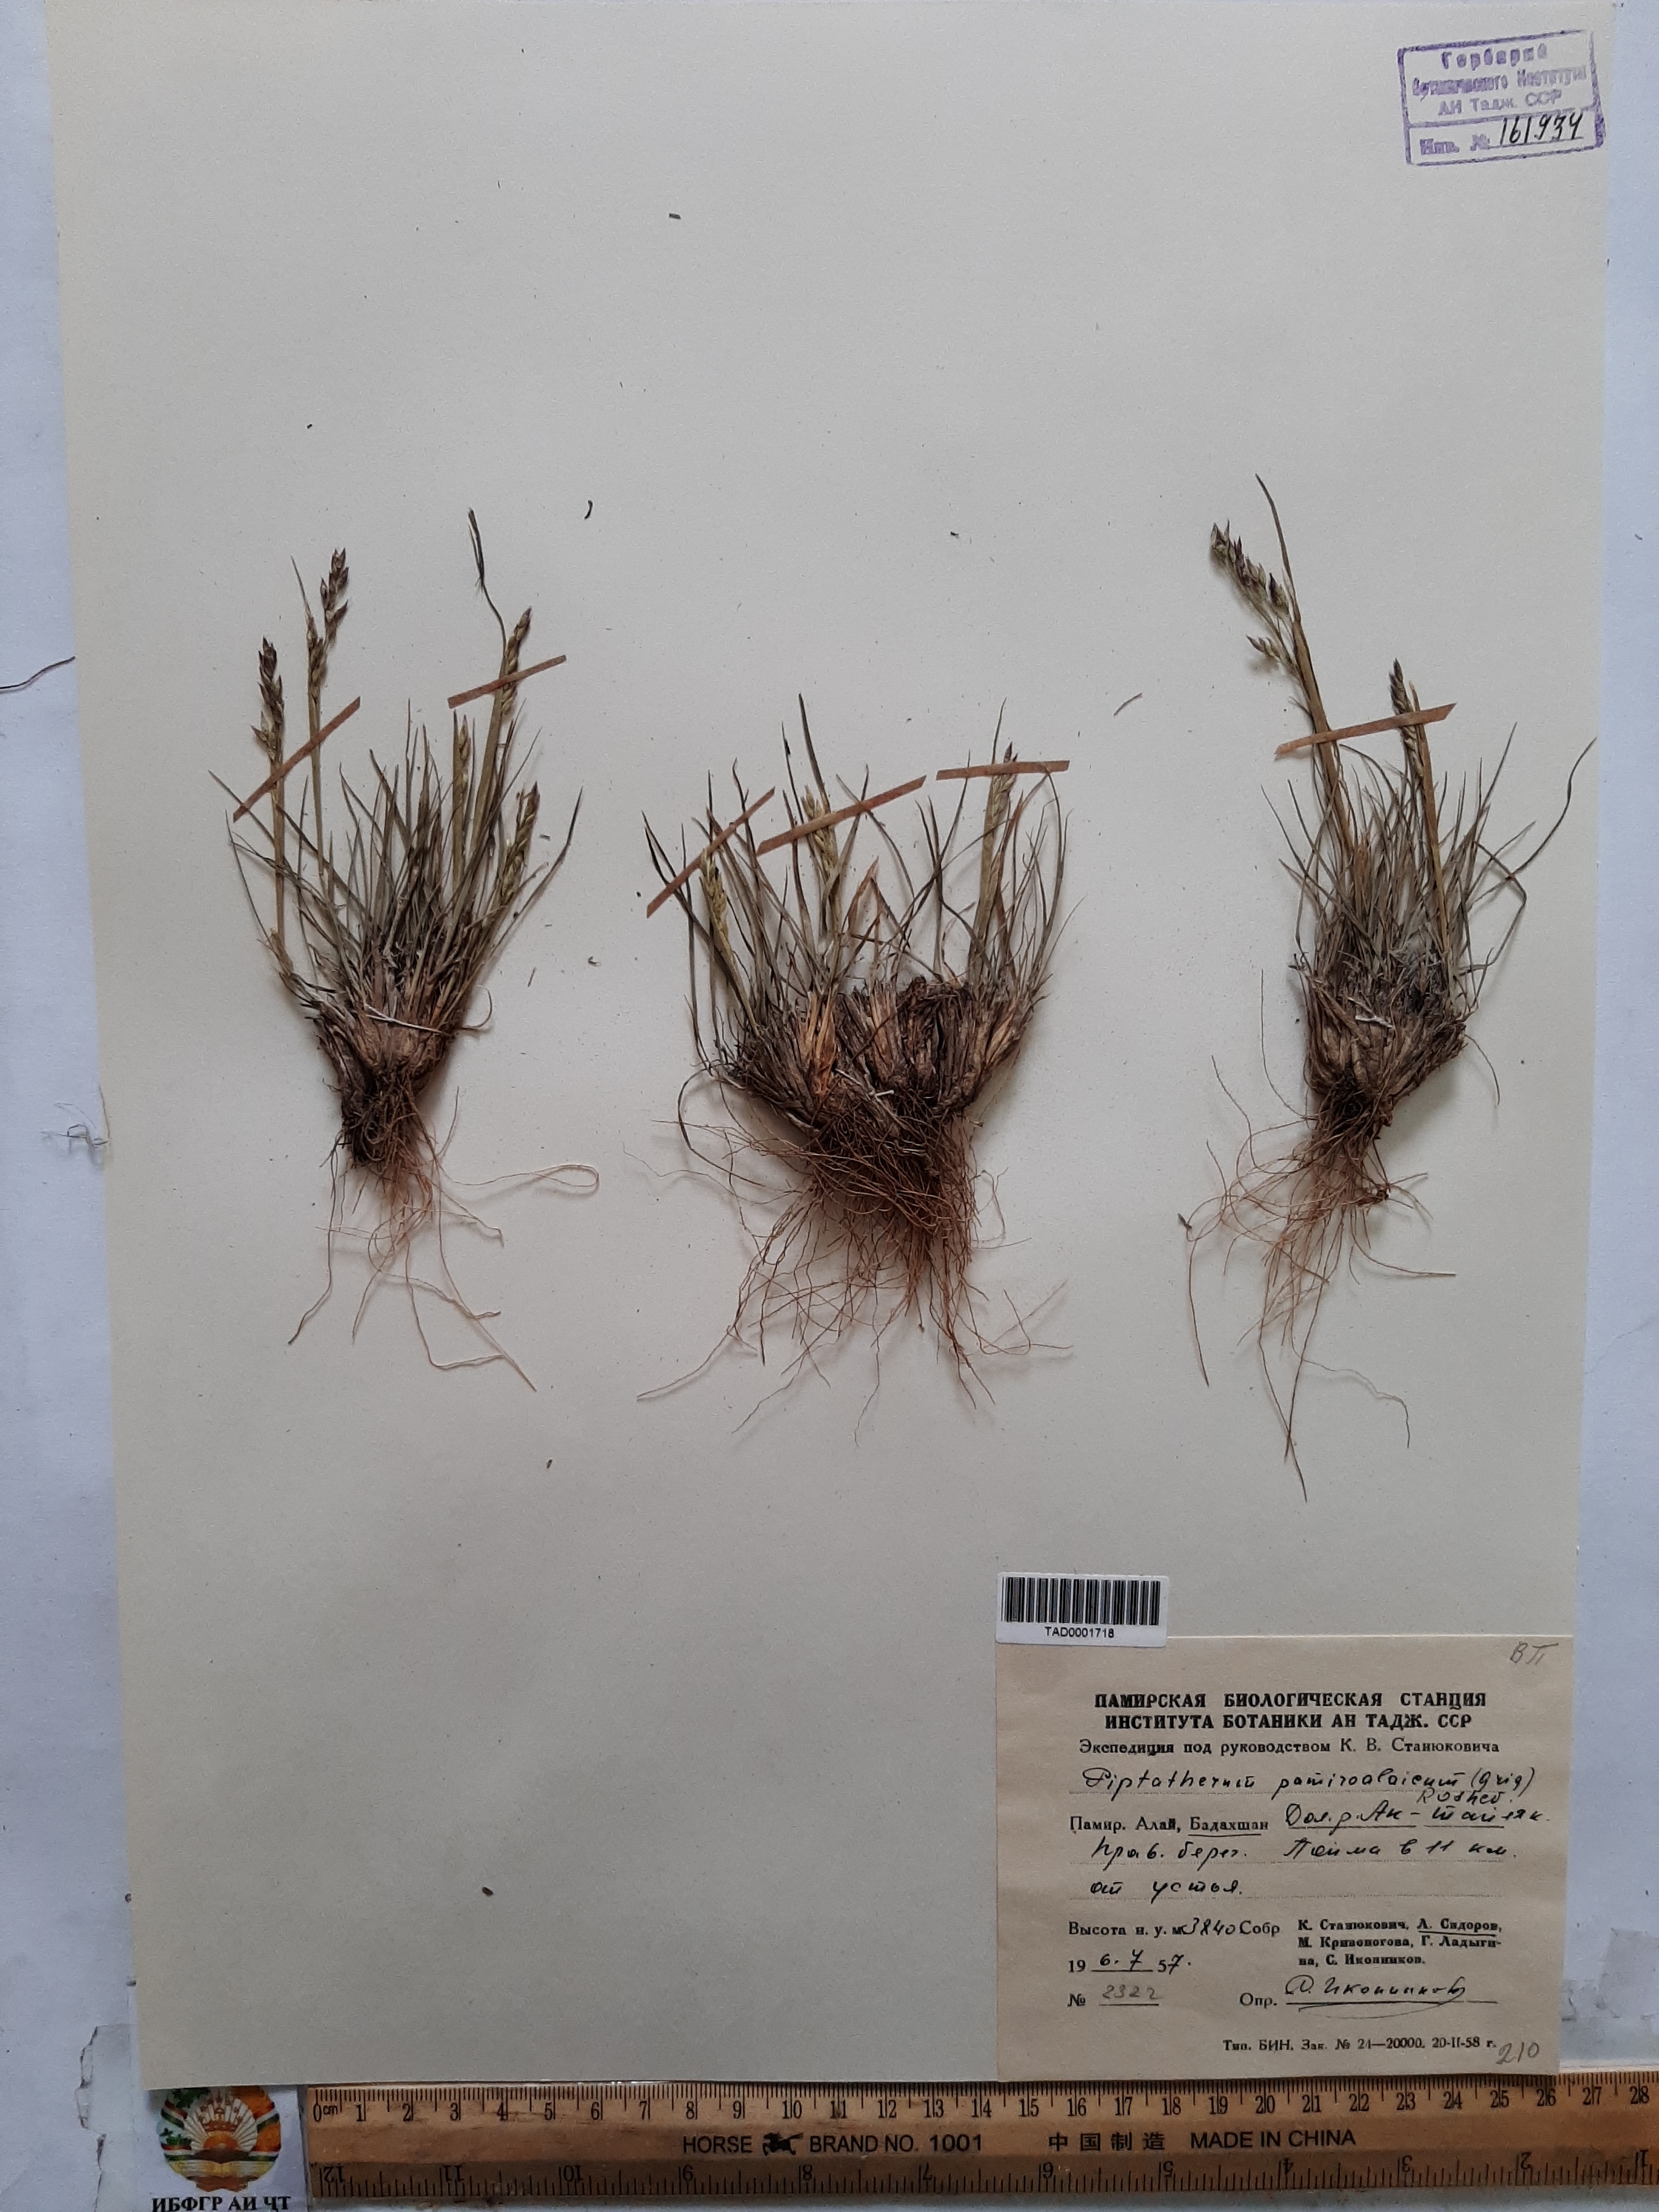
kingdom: Plantae
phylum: Tracheophyta
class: Liliopsida
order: Poales
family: Poaceae
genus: Piptatherum
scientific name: Piptatherum pamiralaicum
